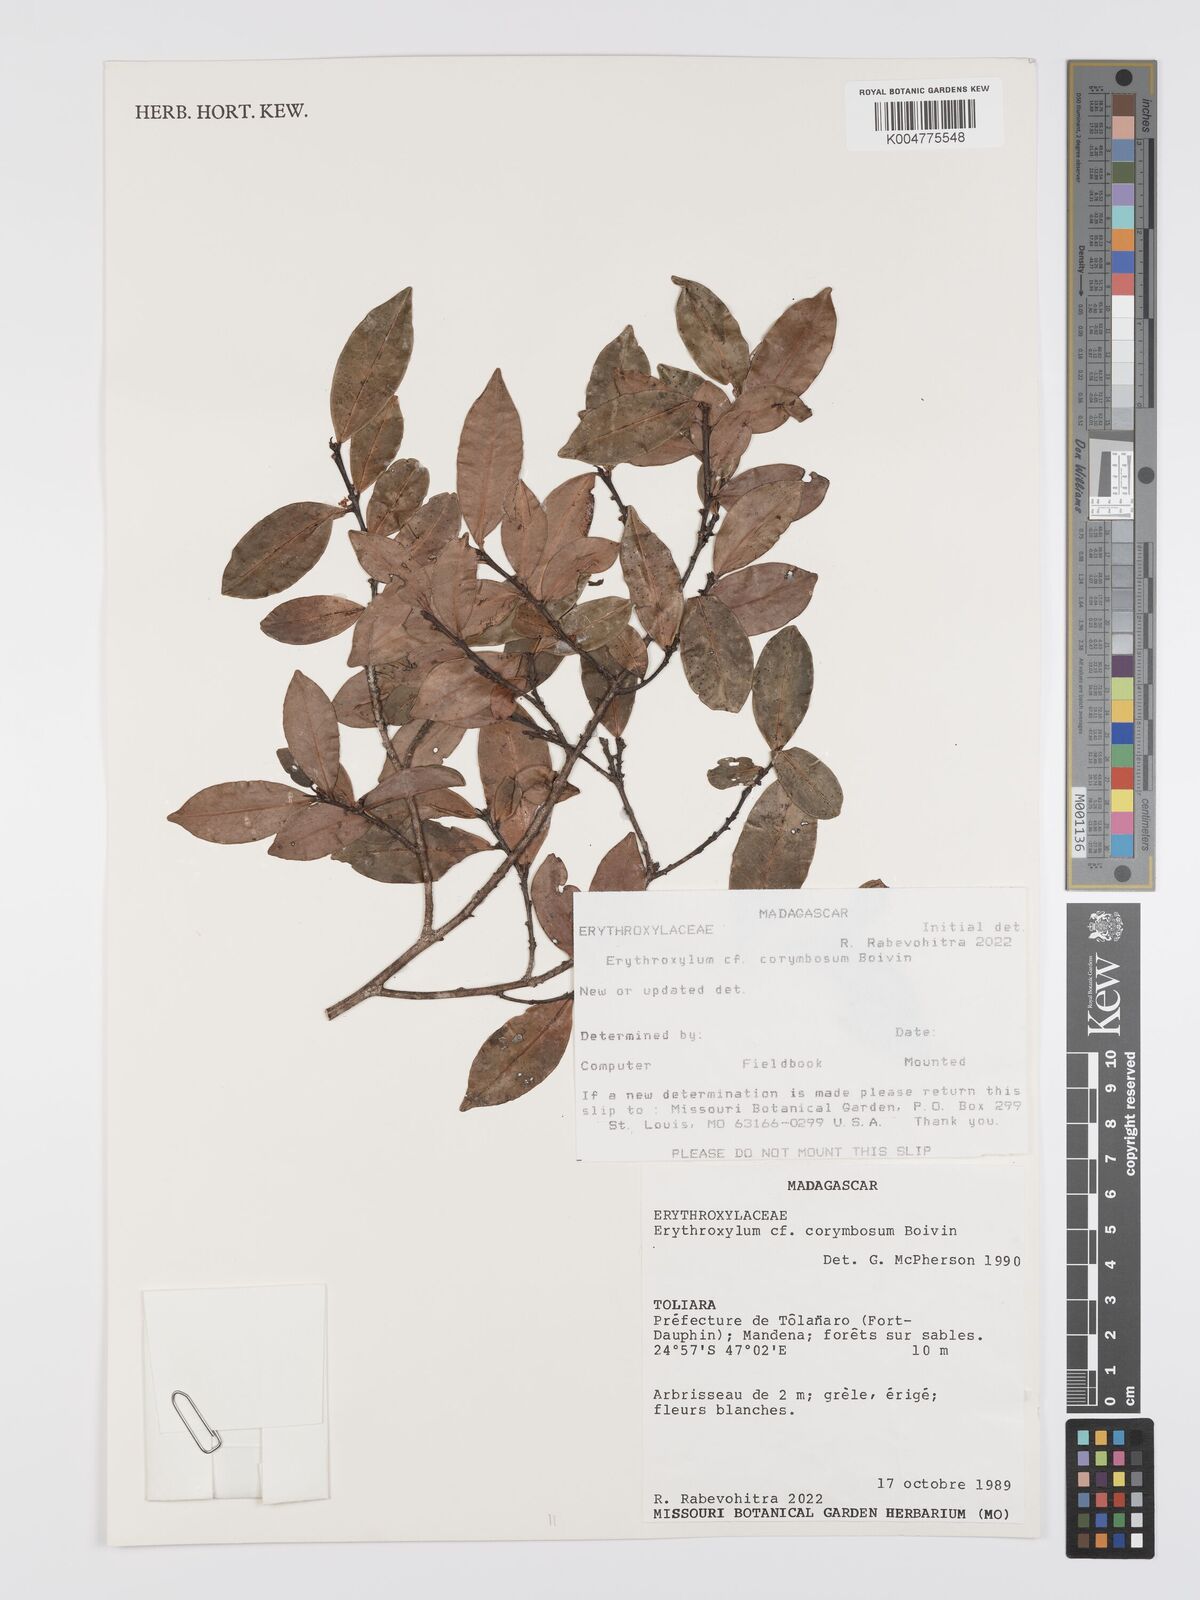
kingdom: Plantae
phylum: Tracheophyta
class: Magnoliopsida
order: Malpighiales
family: Erythroxylaceae
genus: Erythroxylum
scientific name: Erythroxylum corymbosum
